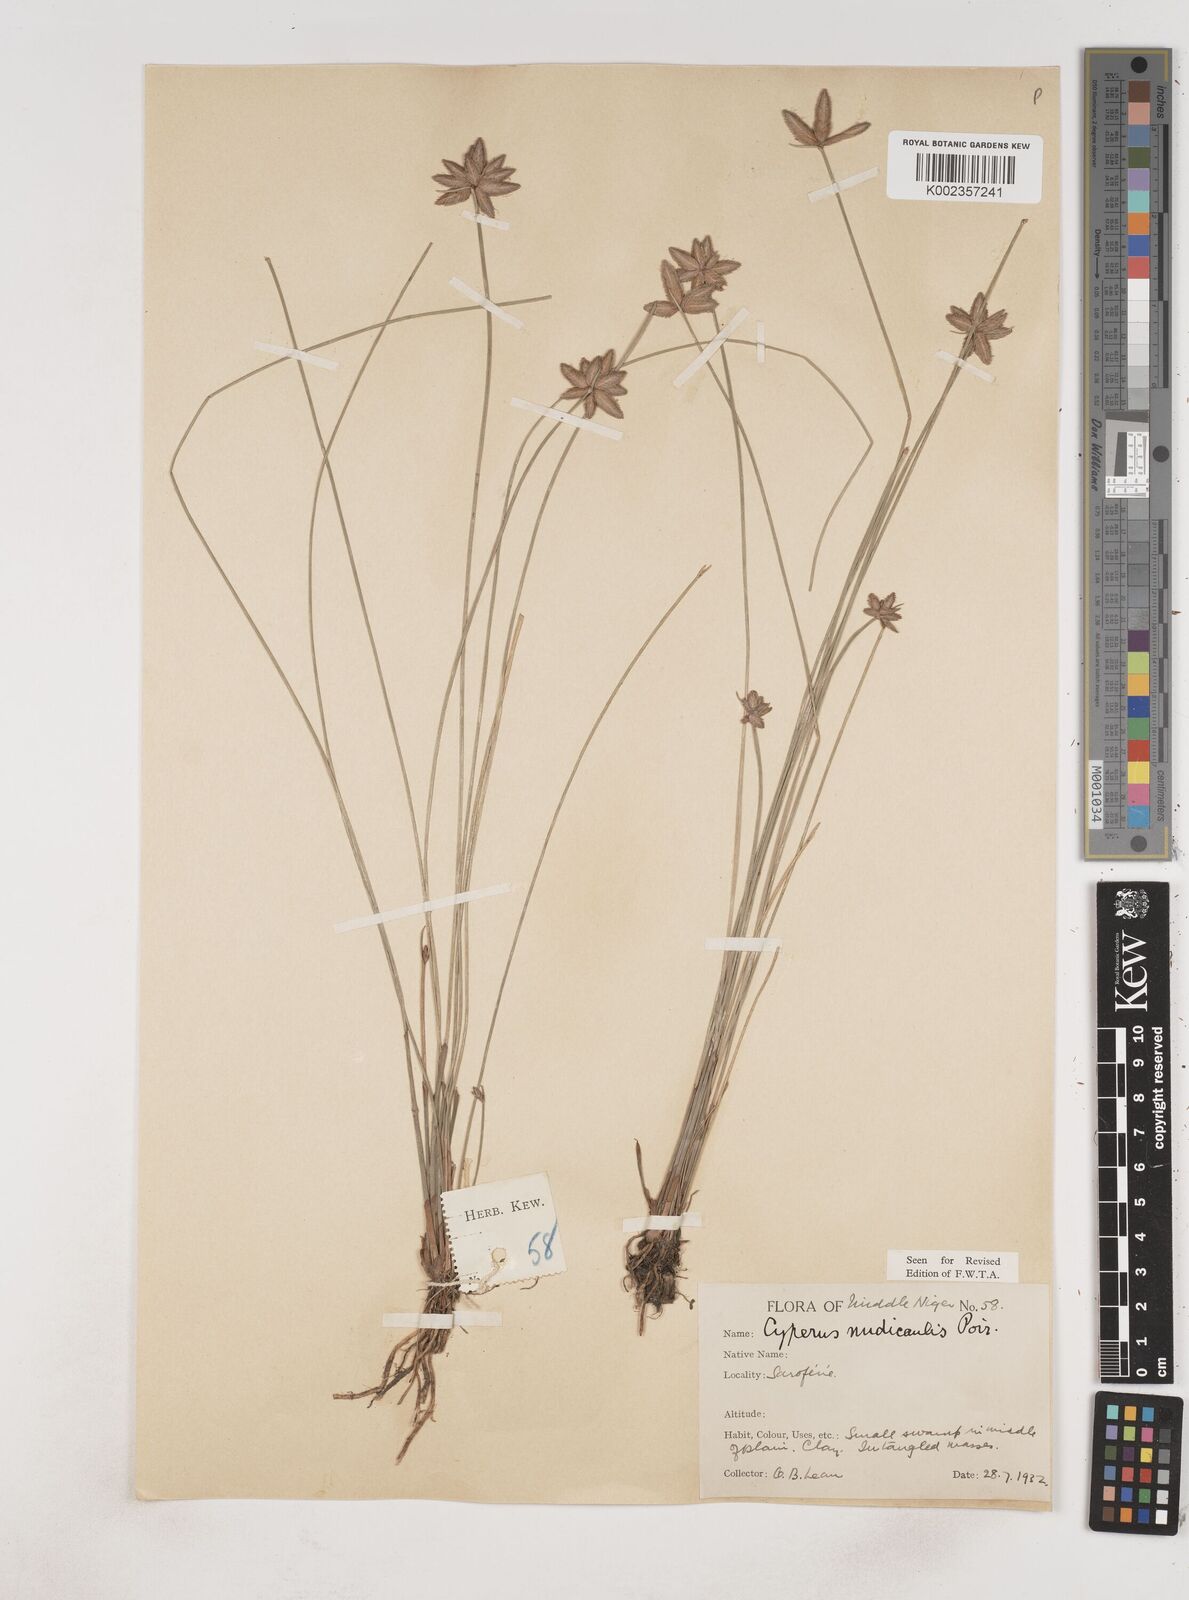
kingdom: Plantae
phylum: Tracheophyta
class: Liliopsida
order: Poales
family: Cyperaceae
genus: Cyperus
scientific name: Cyperus pectinatus
